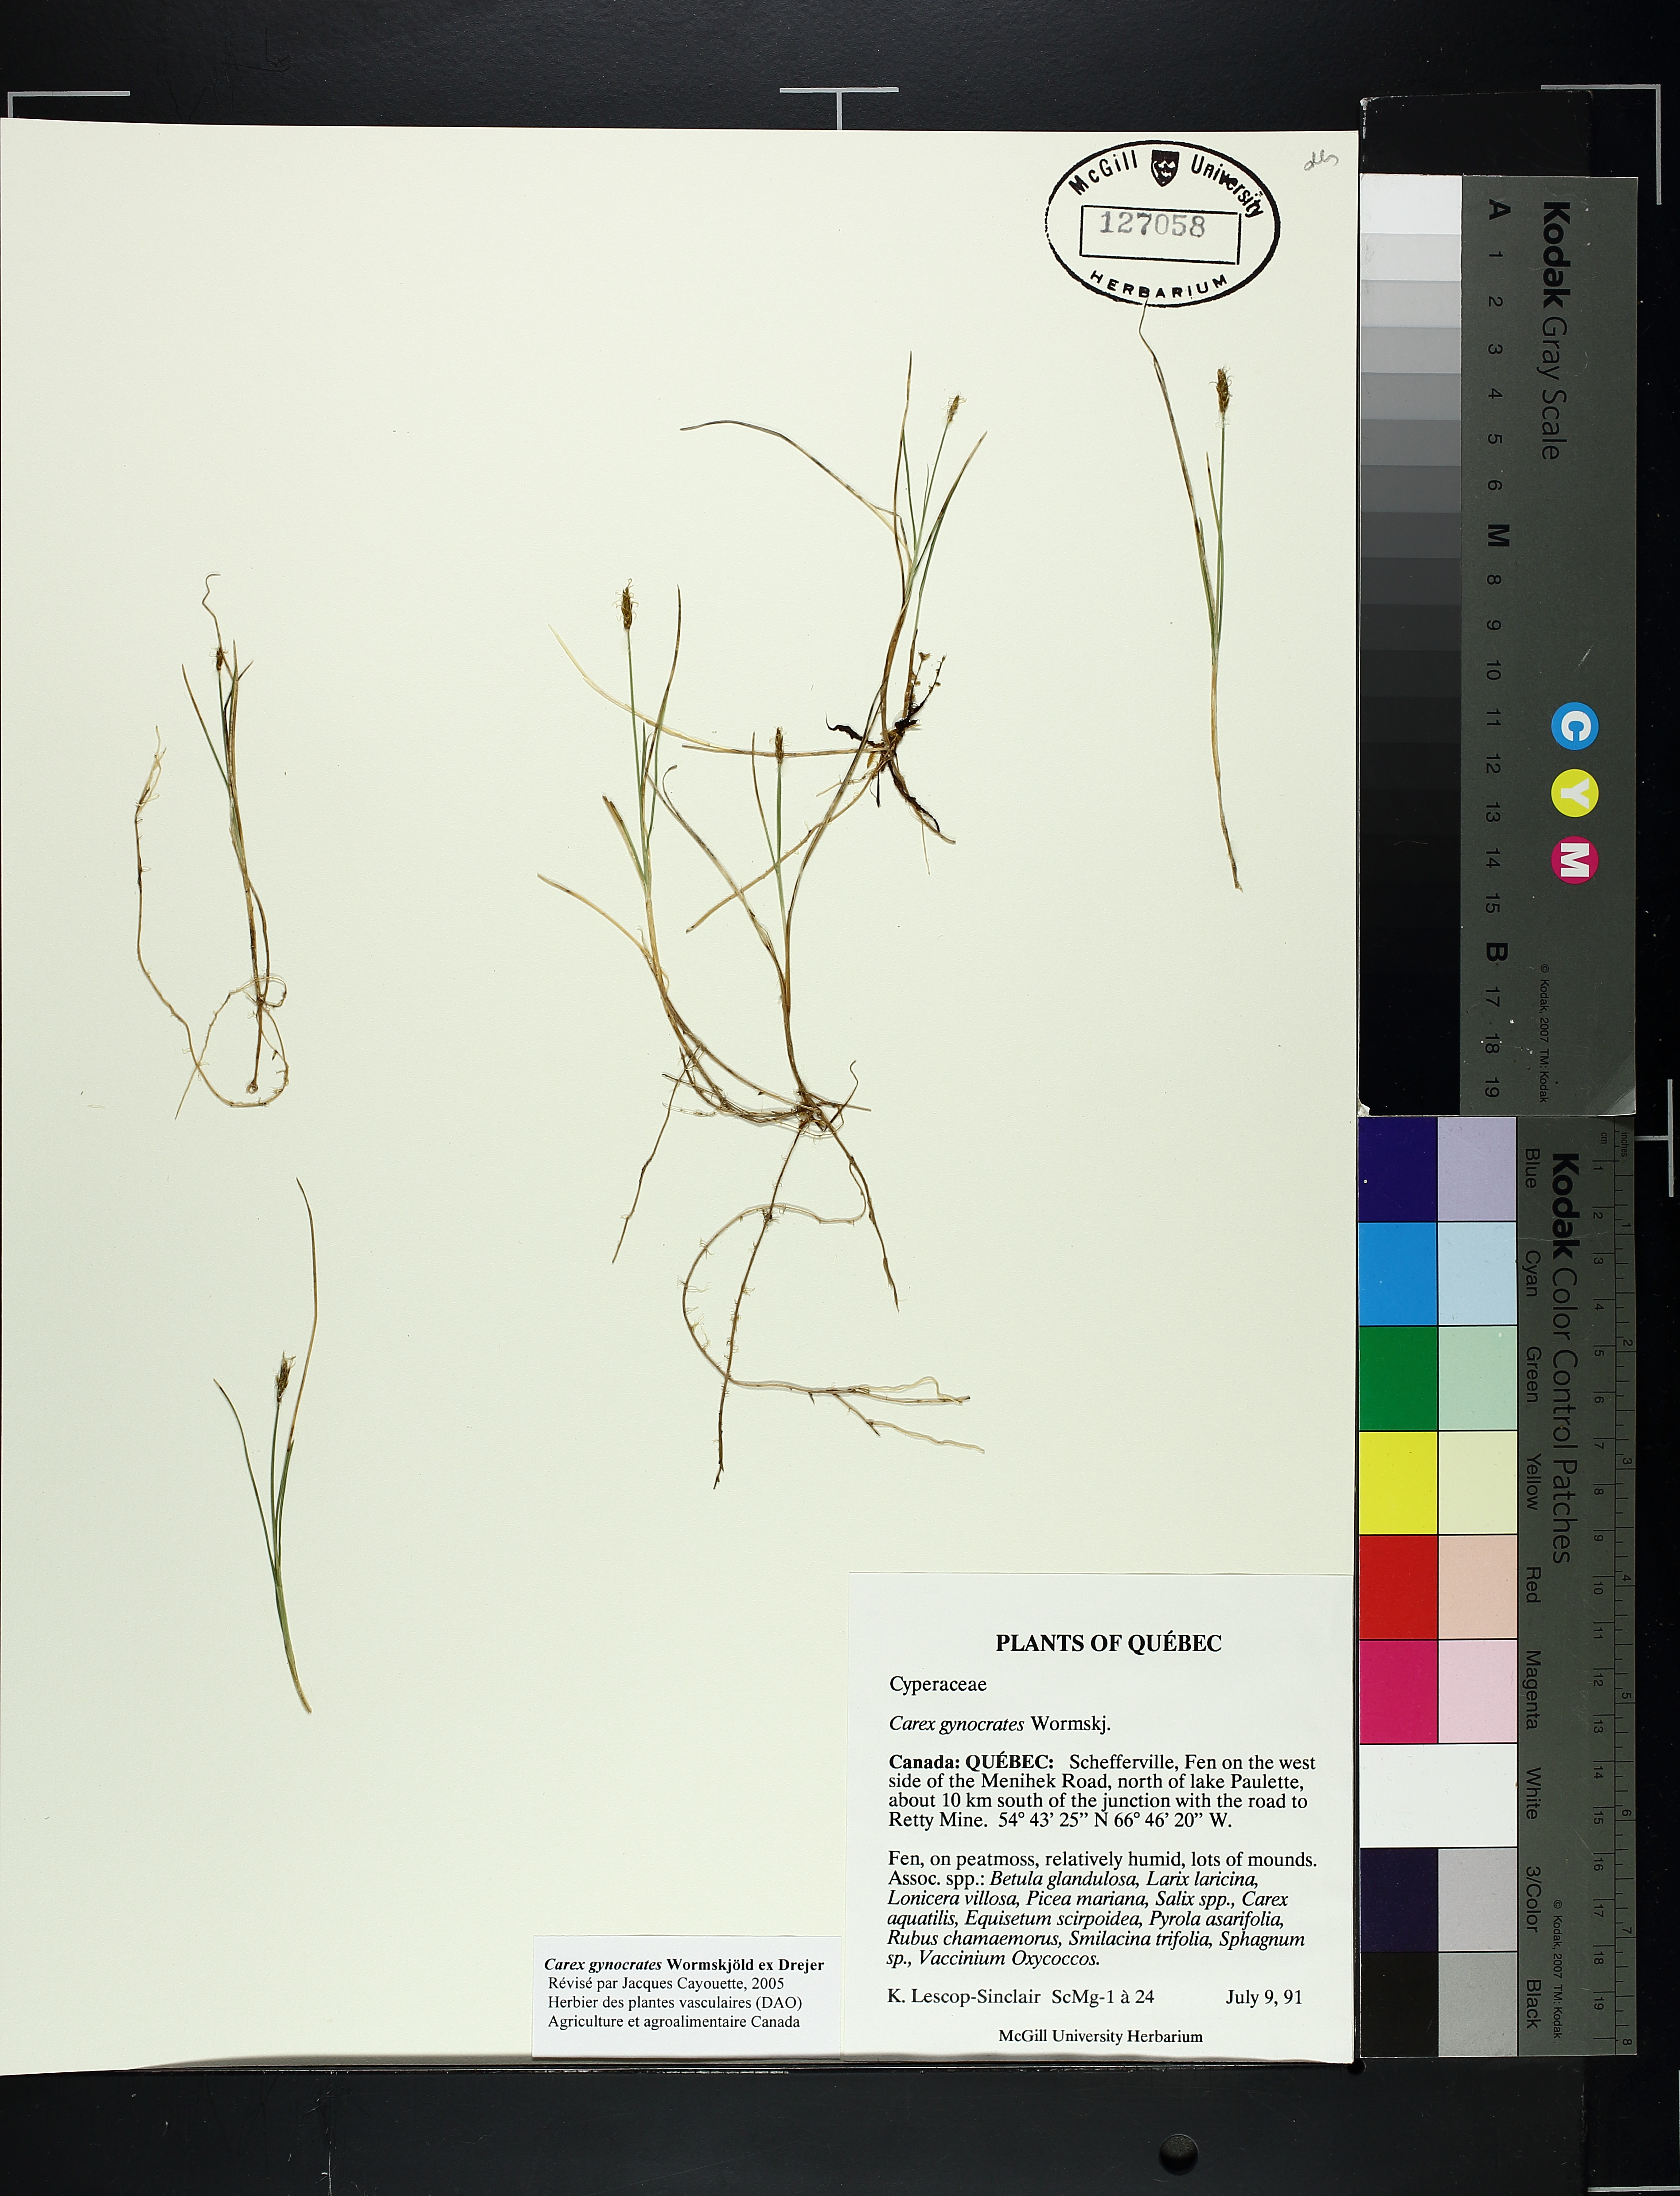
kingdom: Plantae
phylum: Tracheophyta
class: Liliopsida
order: Poales
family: Cyperaceae
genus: Carex
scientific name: Carex gynocrates
